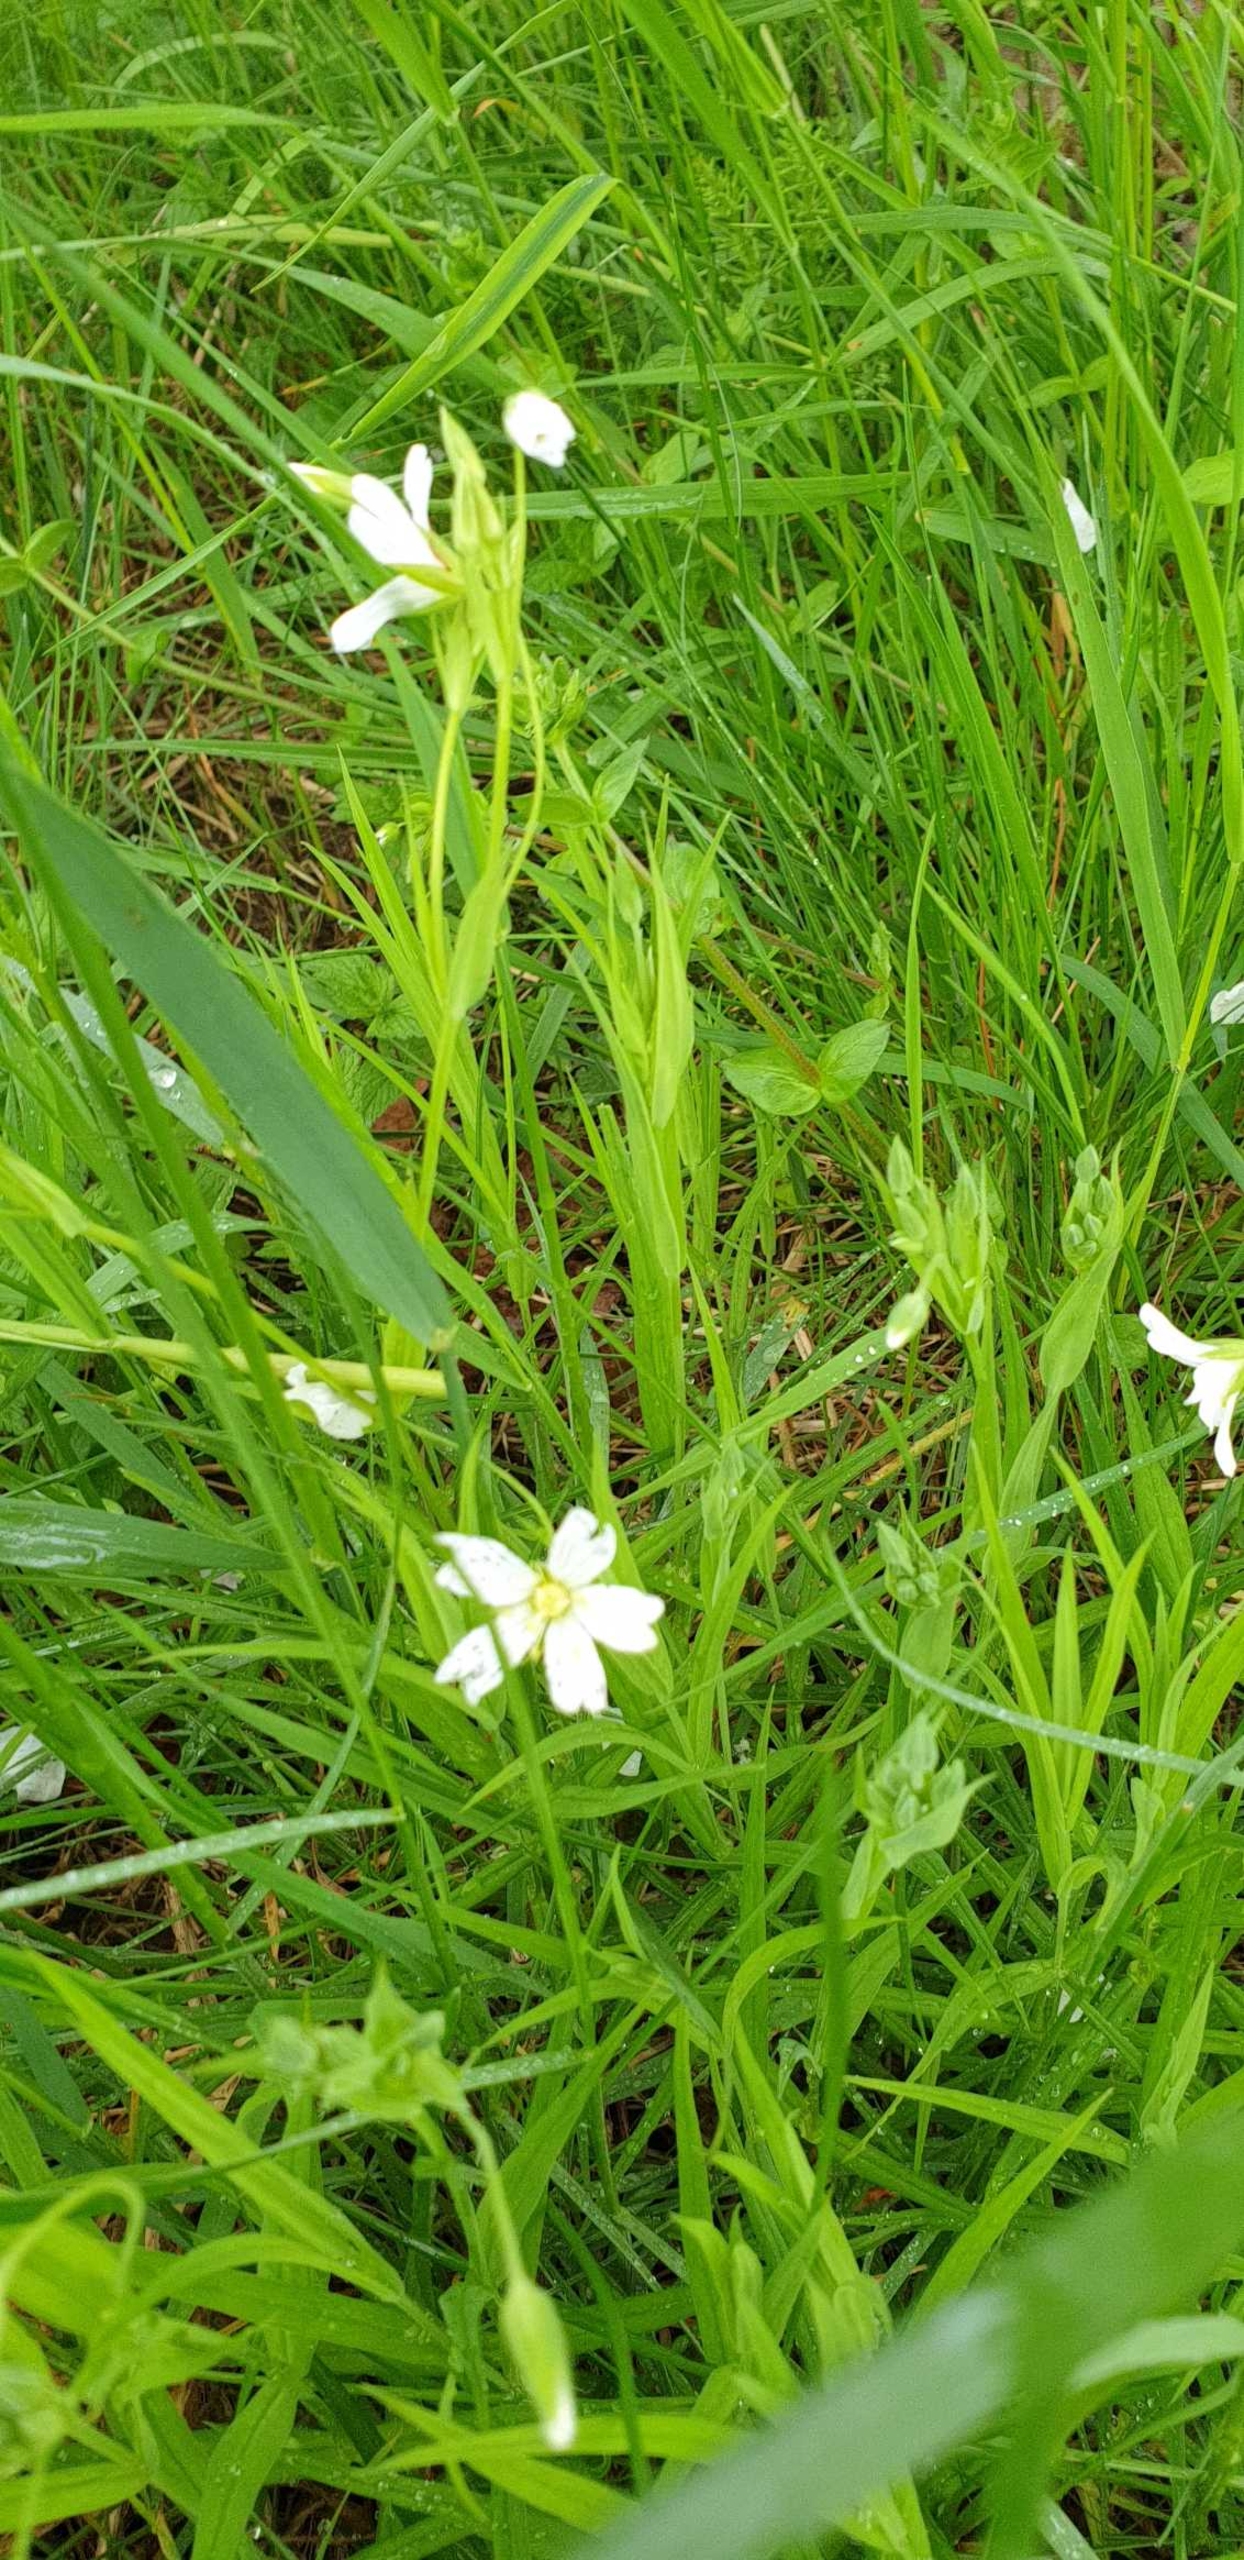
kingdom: Plantae
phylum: Tracheophyta
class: Magnoliopsida
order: Caryophyllales
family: Caryophyllaceae
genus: Rabelera
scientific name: Rabelera holostea
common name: Stor fladstjerne
